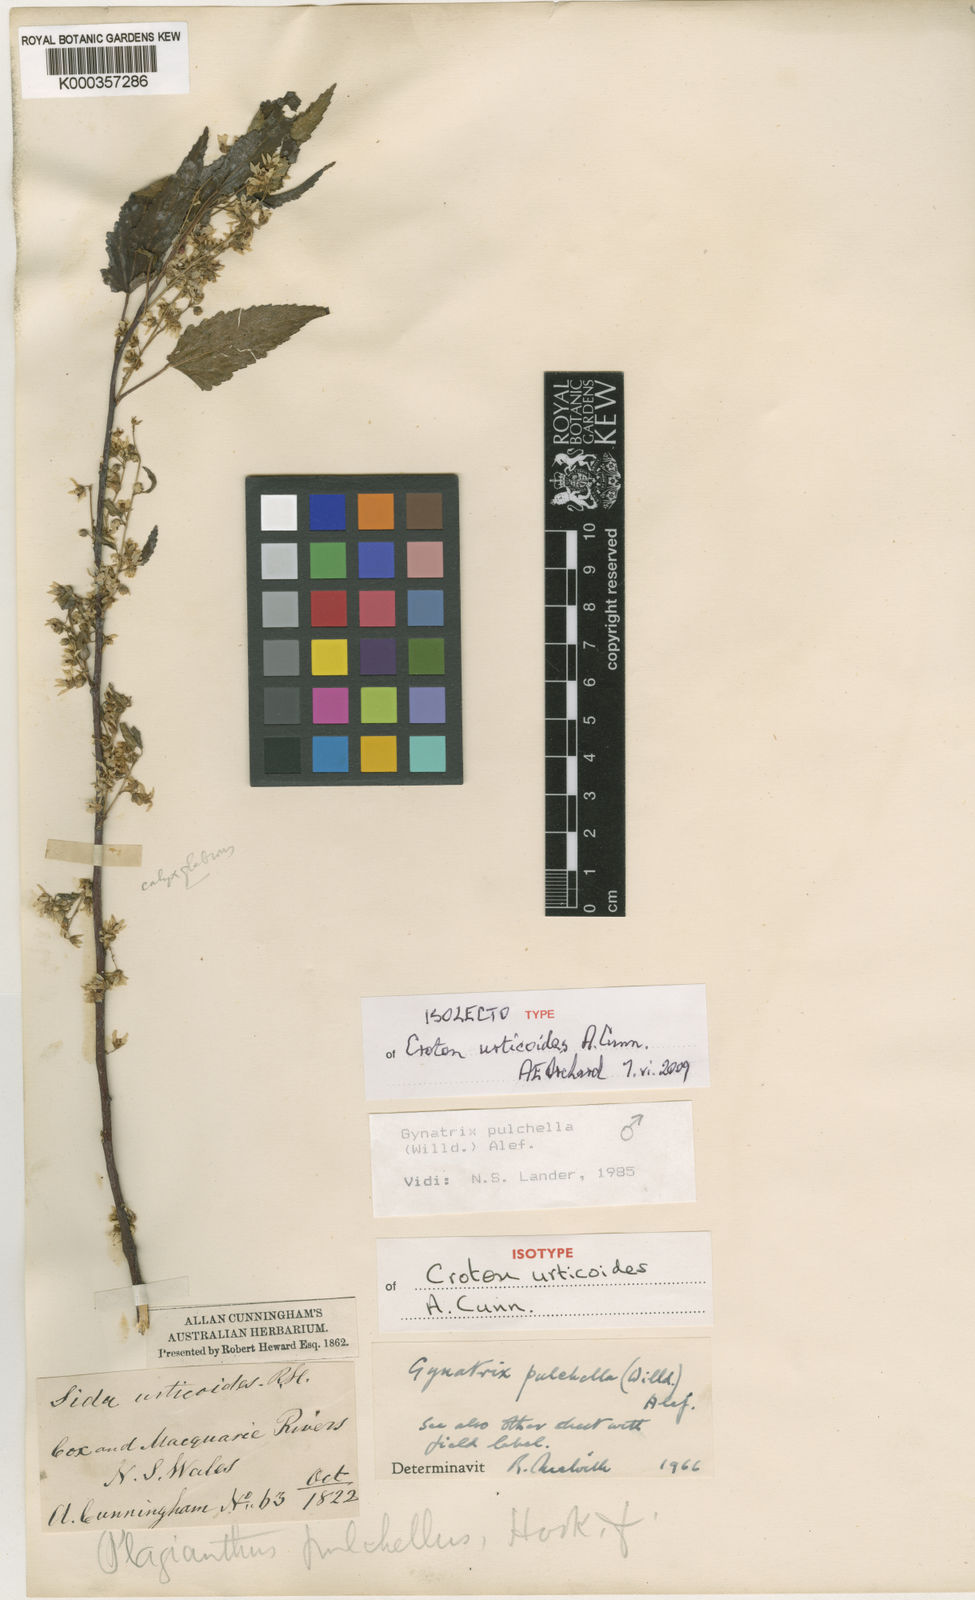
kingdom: Plantae
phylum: Tracheophyta
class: Magnoliopsida
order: Malvales
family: Malvaceae
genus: Gynatrix
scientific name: Gynatrix pulchella
